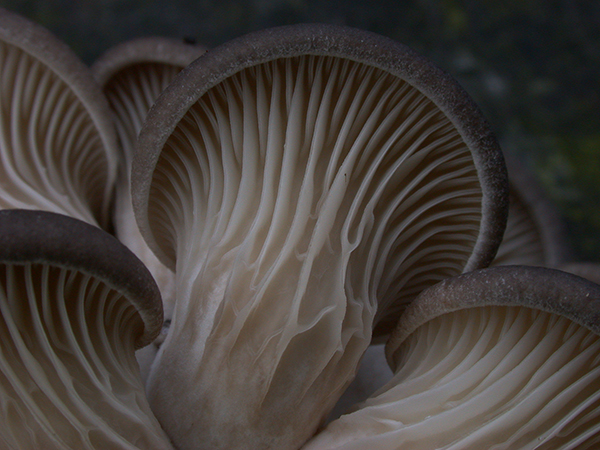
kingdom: Fungi
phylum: Basidiomycota
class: Agaricomycetes
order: Agaricales
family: Pleurotaceae
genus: Pleurotus
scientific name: Pleurotus ostreatus
